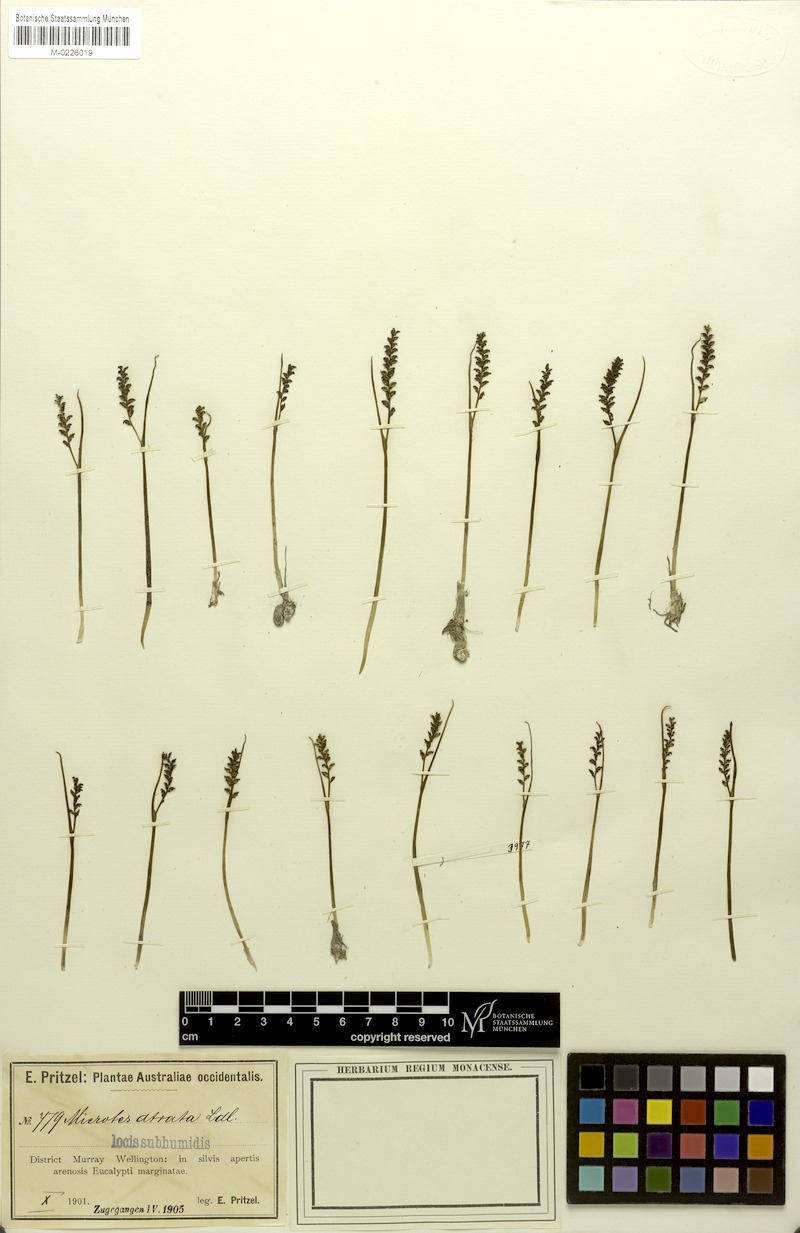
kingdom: Plantae
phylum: Tracheophyta
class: Liliopsida
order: Asparagales
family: Orchidaceae
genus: Microtis
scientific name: Microtis atrata
